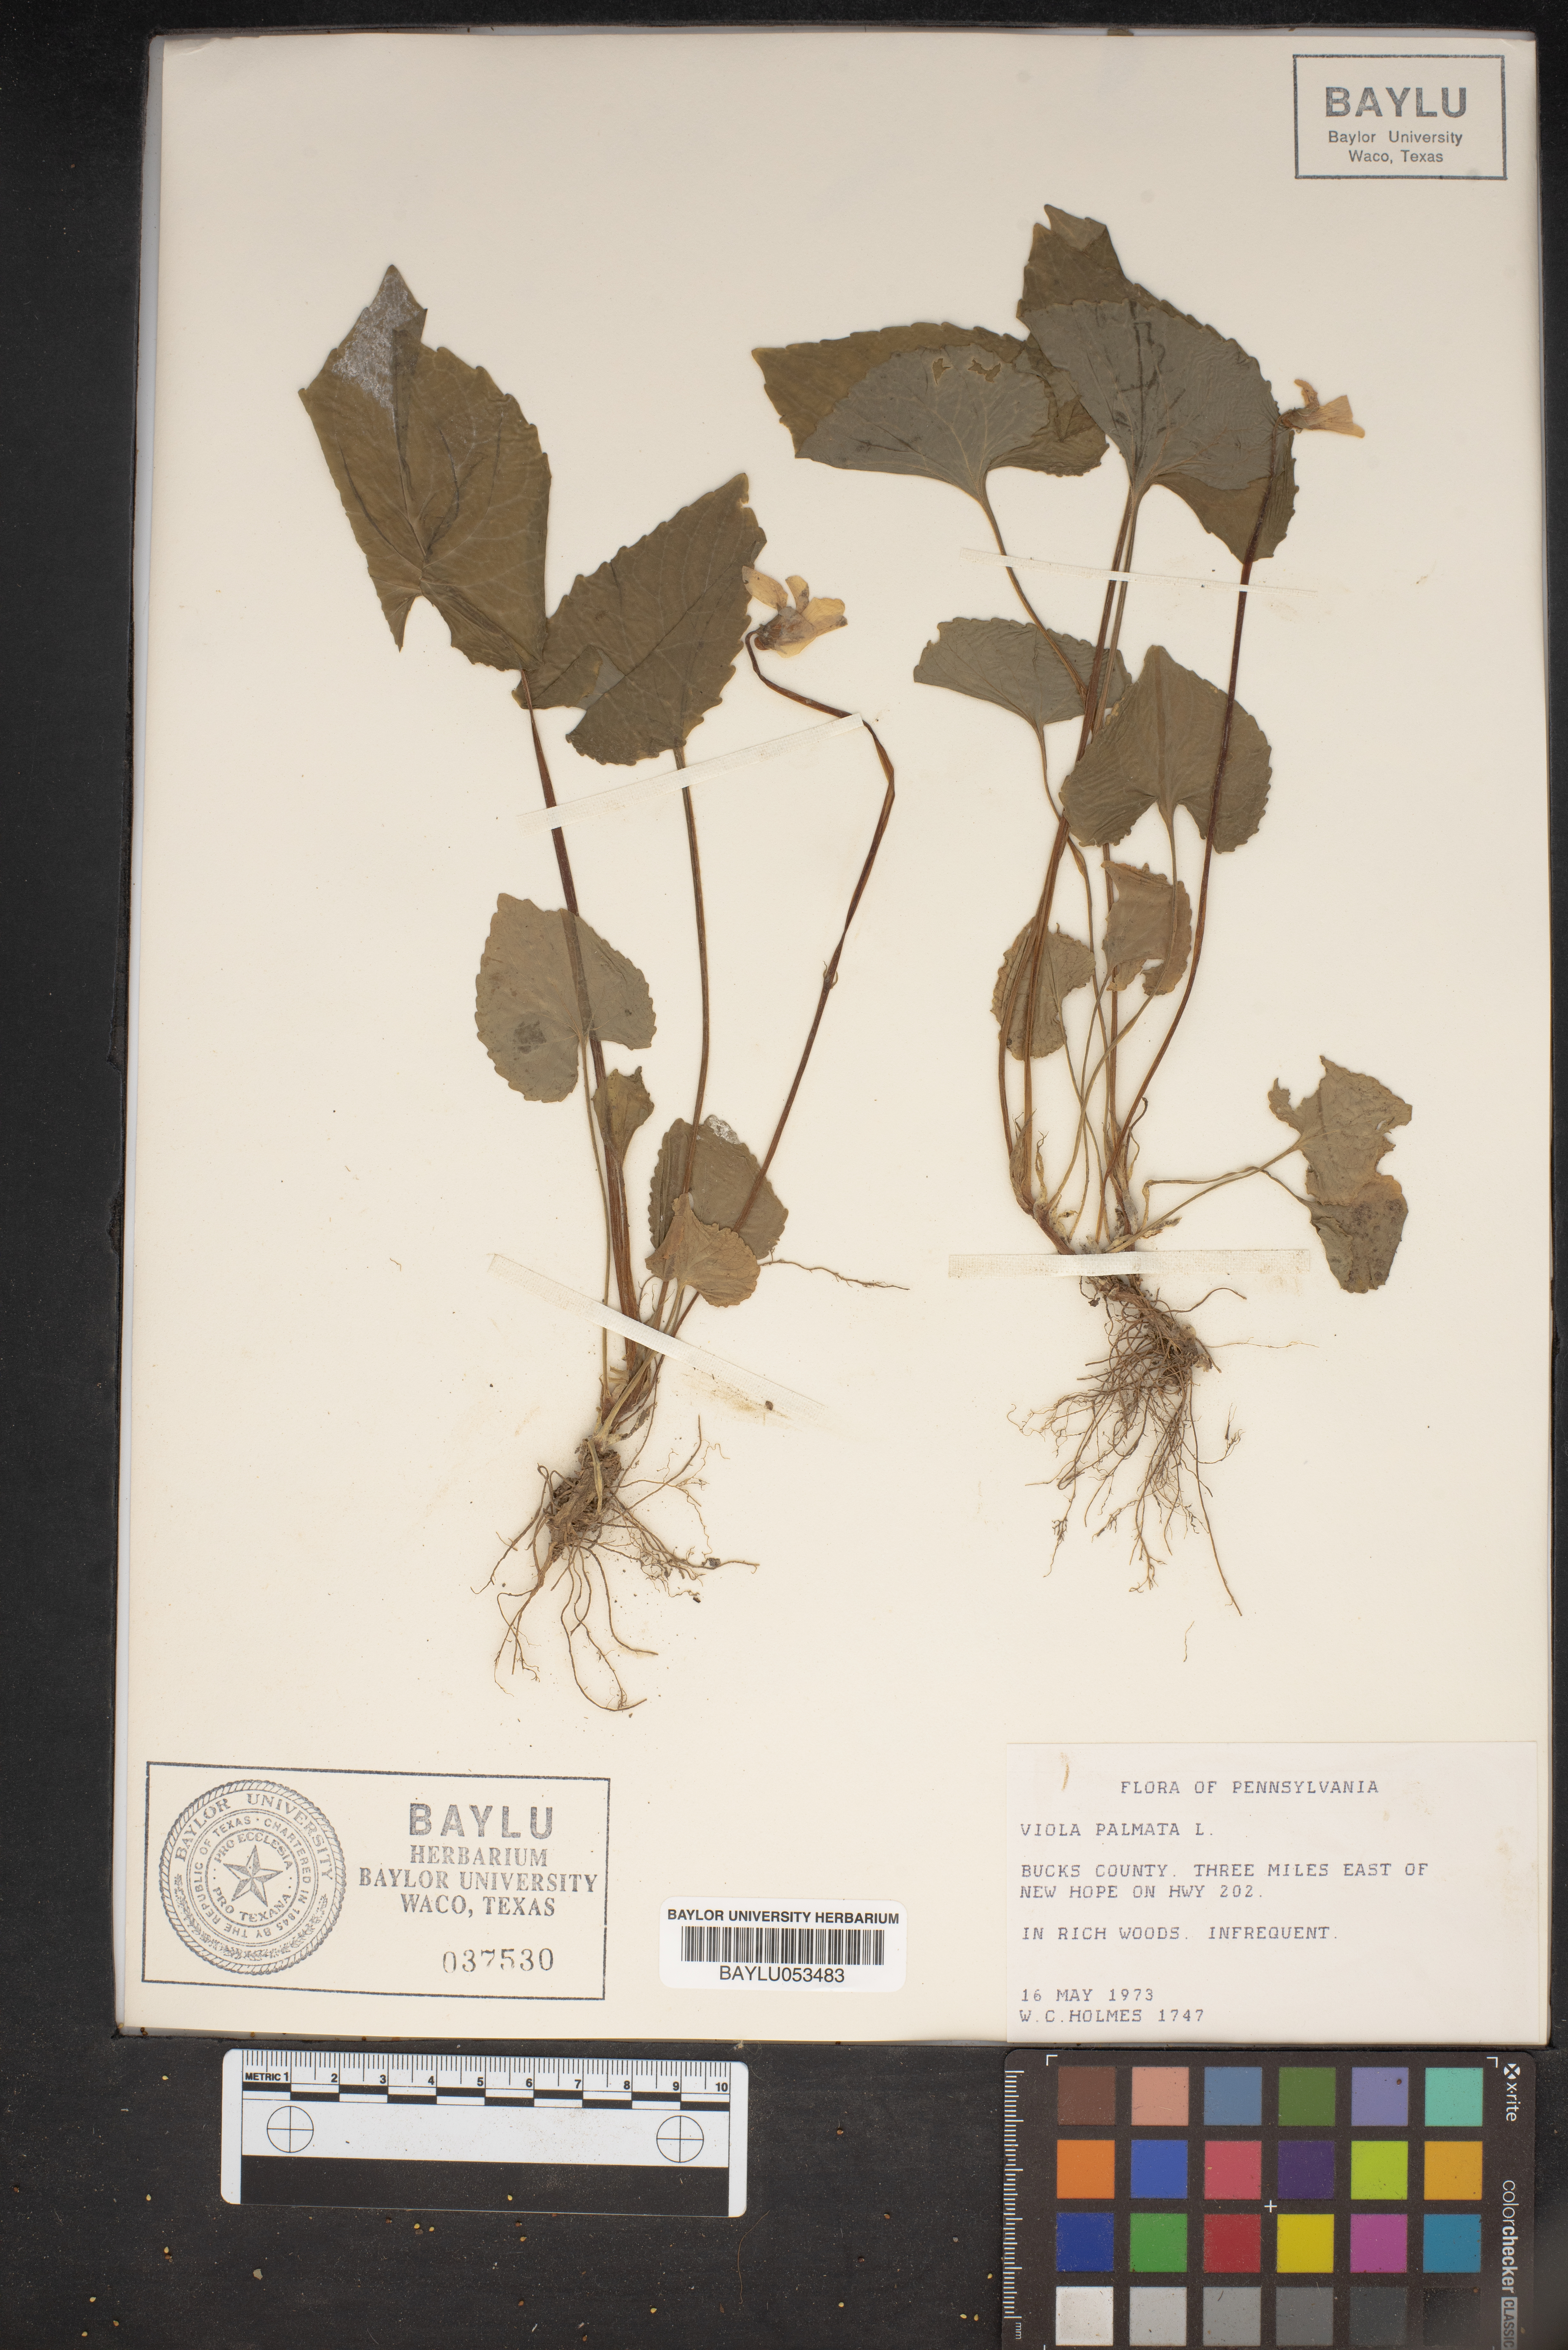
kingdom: Plantae
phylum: Tracheophyta
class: Magnoliopsida
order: Malpighiales
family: Violaceae
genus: Viola
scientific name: Viola palmata
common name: Early blue violet
